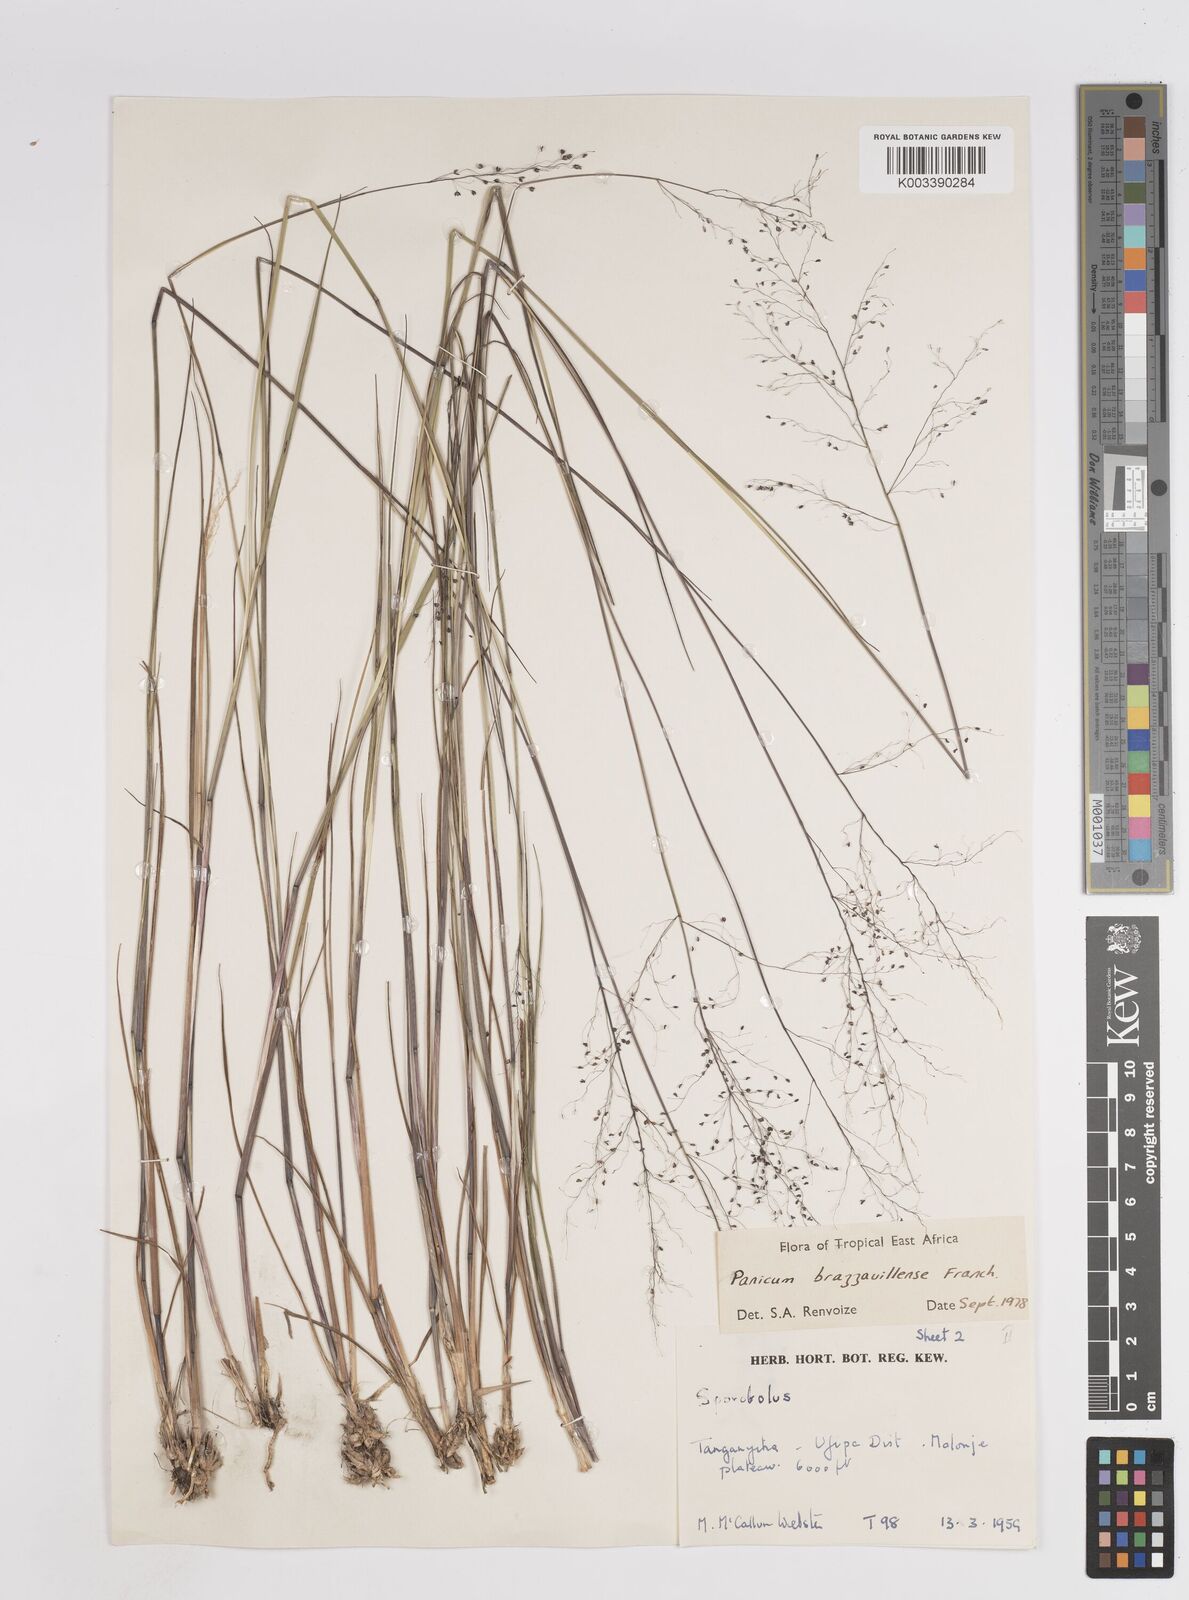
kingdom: Plantae
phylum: Tracheophyta
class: Liliopsida
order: Poales
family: Poaceae
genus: Trichanthecium
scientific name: Trichanthecium brazzavillense
